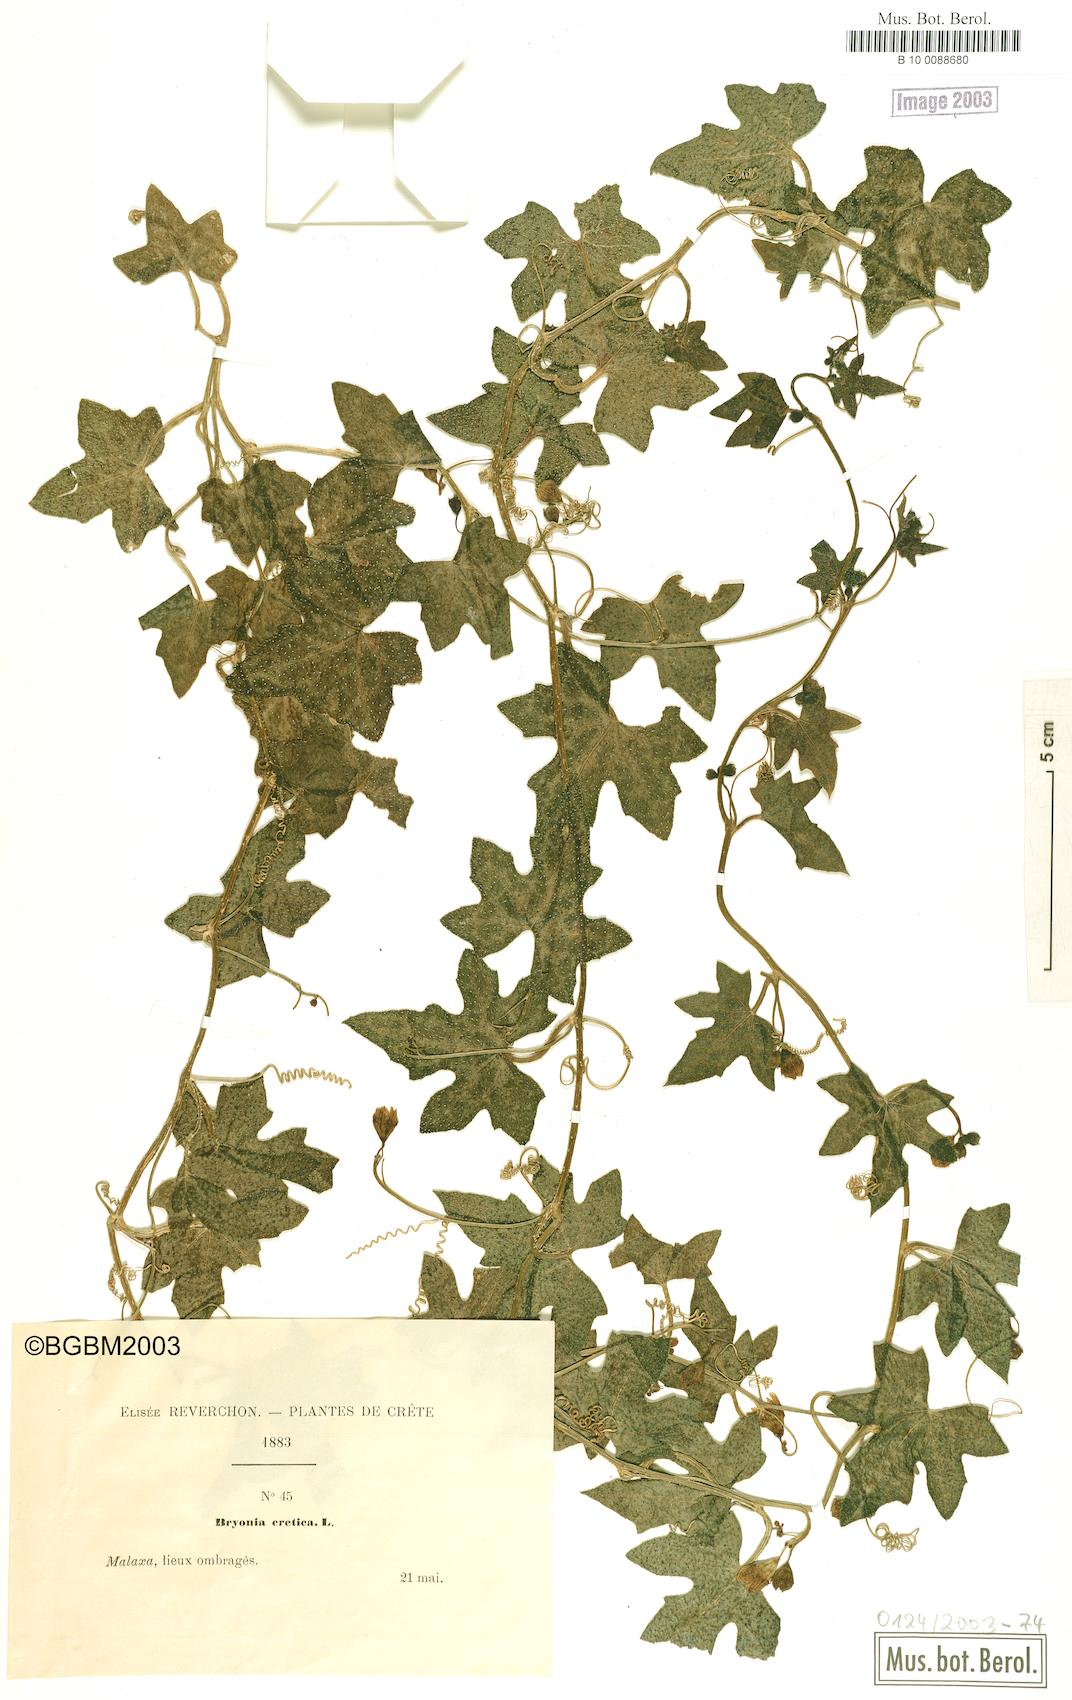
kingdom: Plantae
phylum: Tracheophyta
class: Magnoliopsida
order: Cucurbitales
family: Cucurbitaceae
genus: Bryonia
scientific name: Bryonia cretica
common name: Cretan bryony
